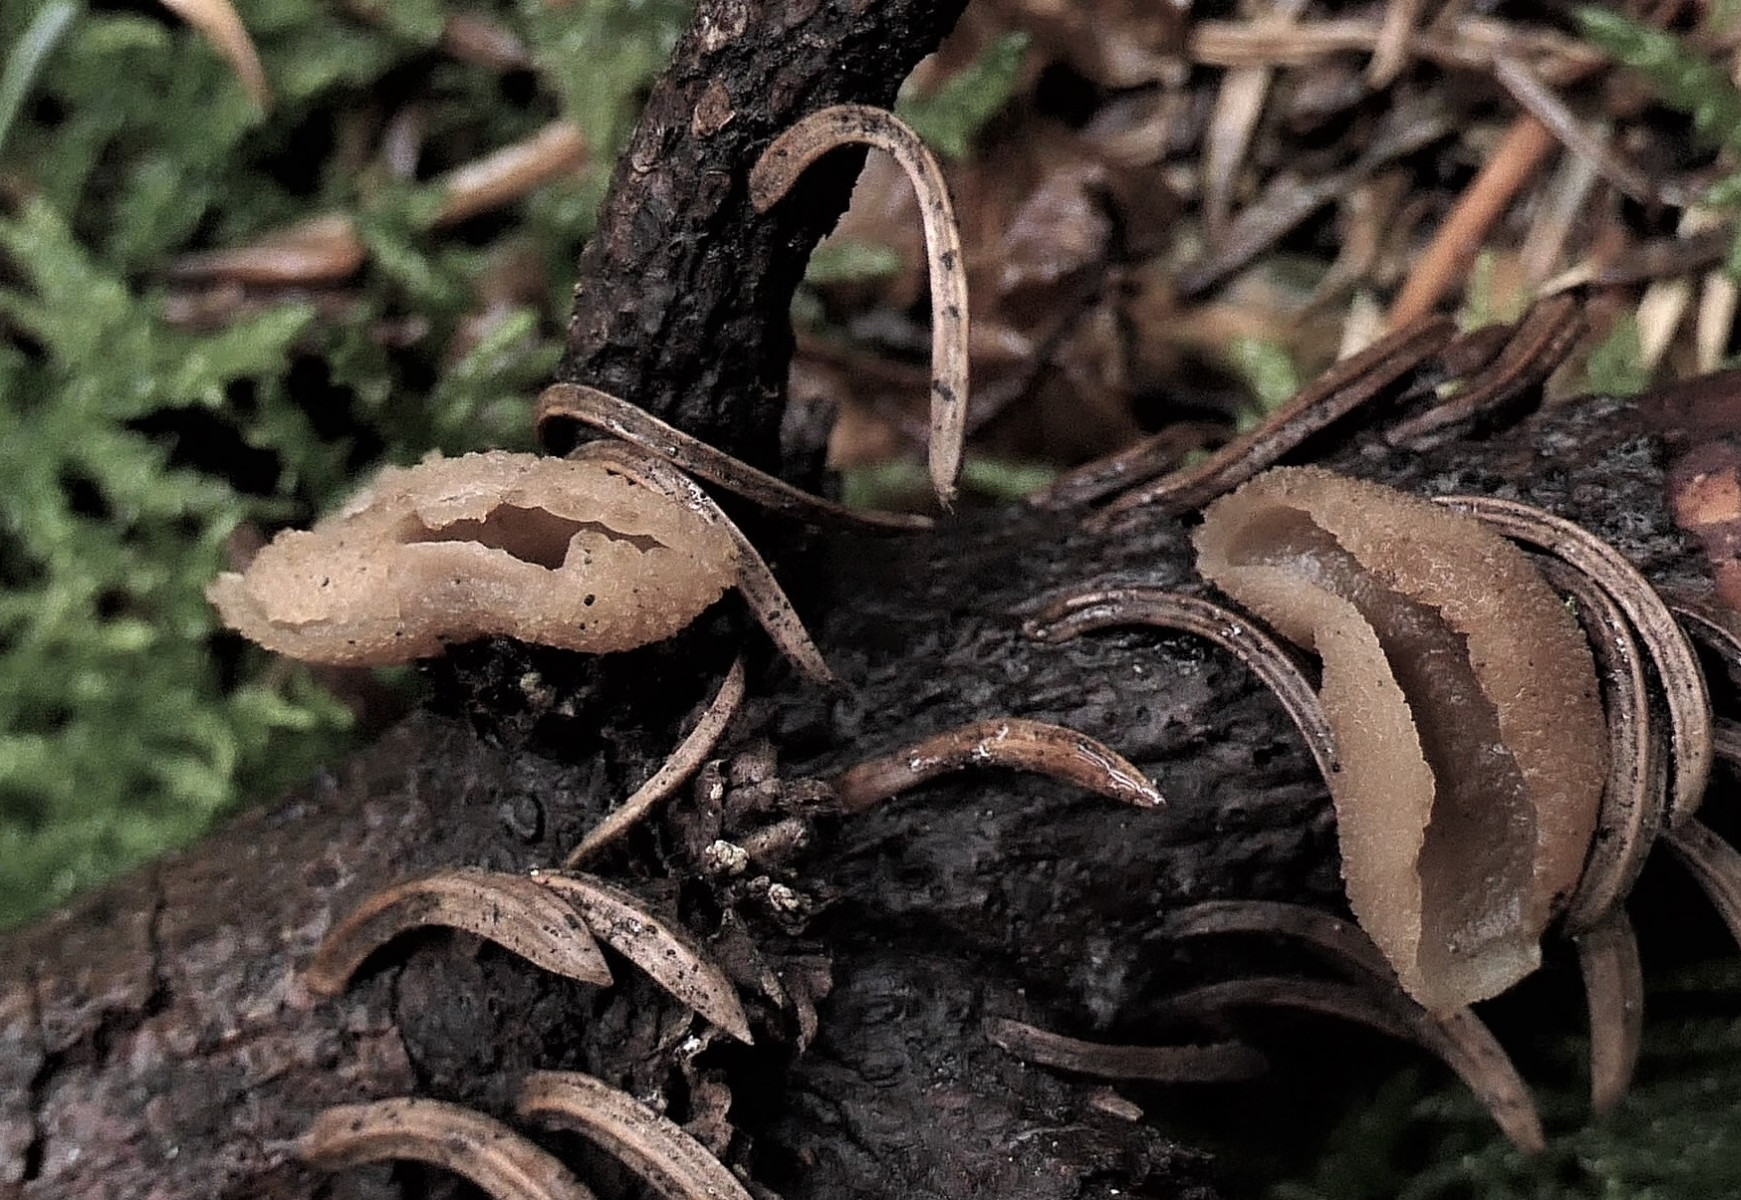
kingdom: Fungi
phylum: Ascomycota
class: Pezizomycetes
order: Pezizales
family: Pezizaceae
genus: Peziza
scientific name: Peziza varia
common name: Ved-bægersvamp
